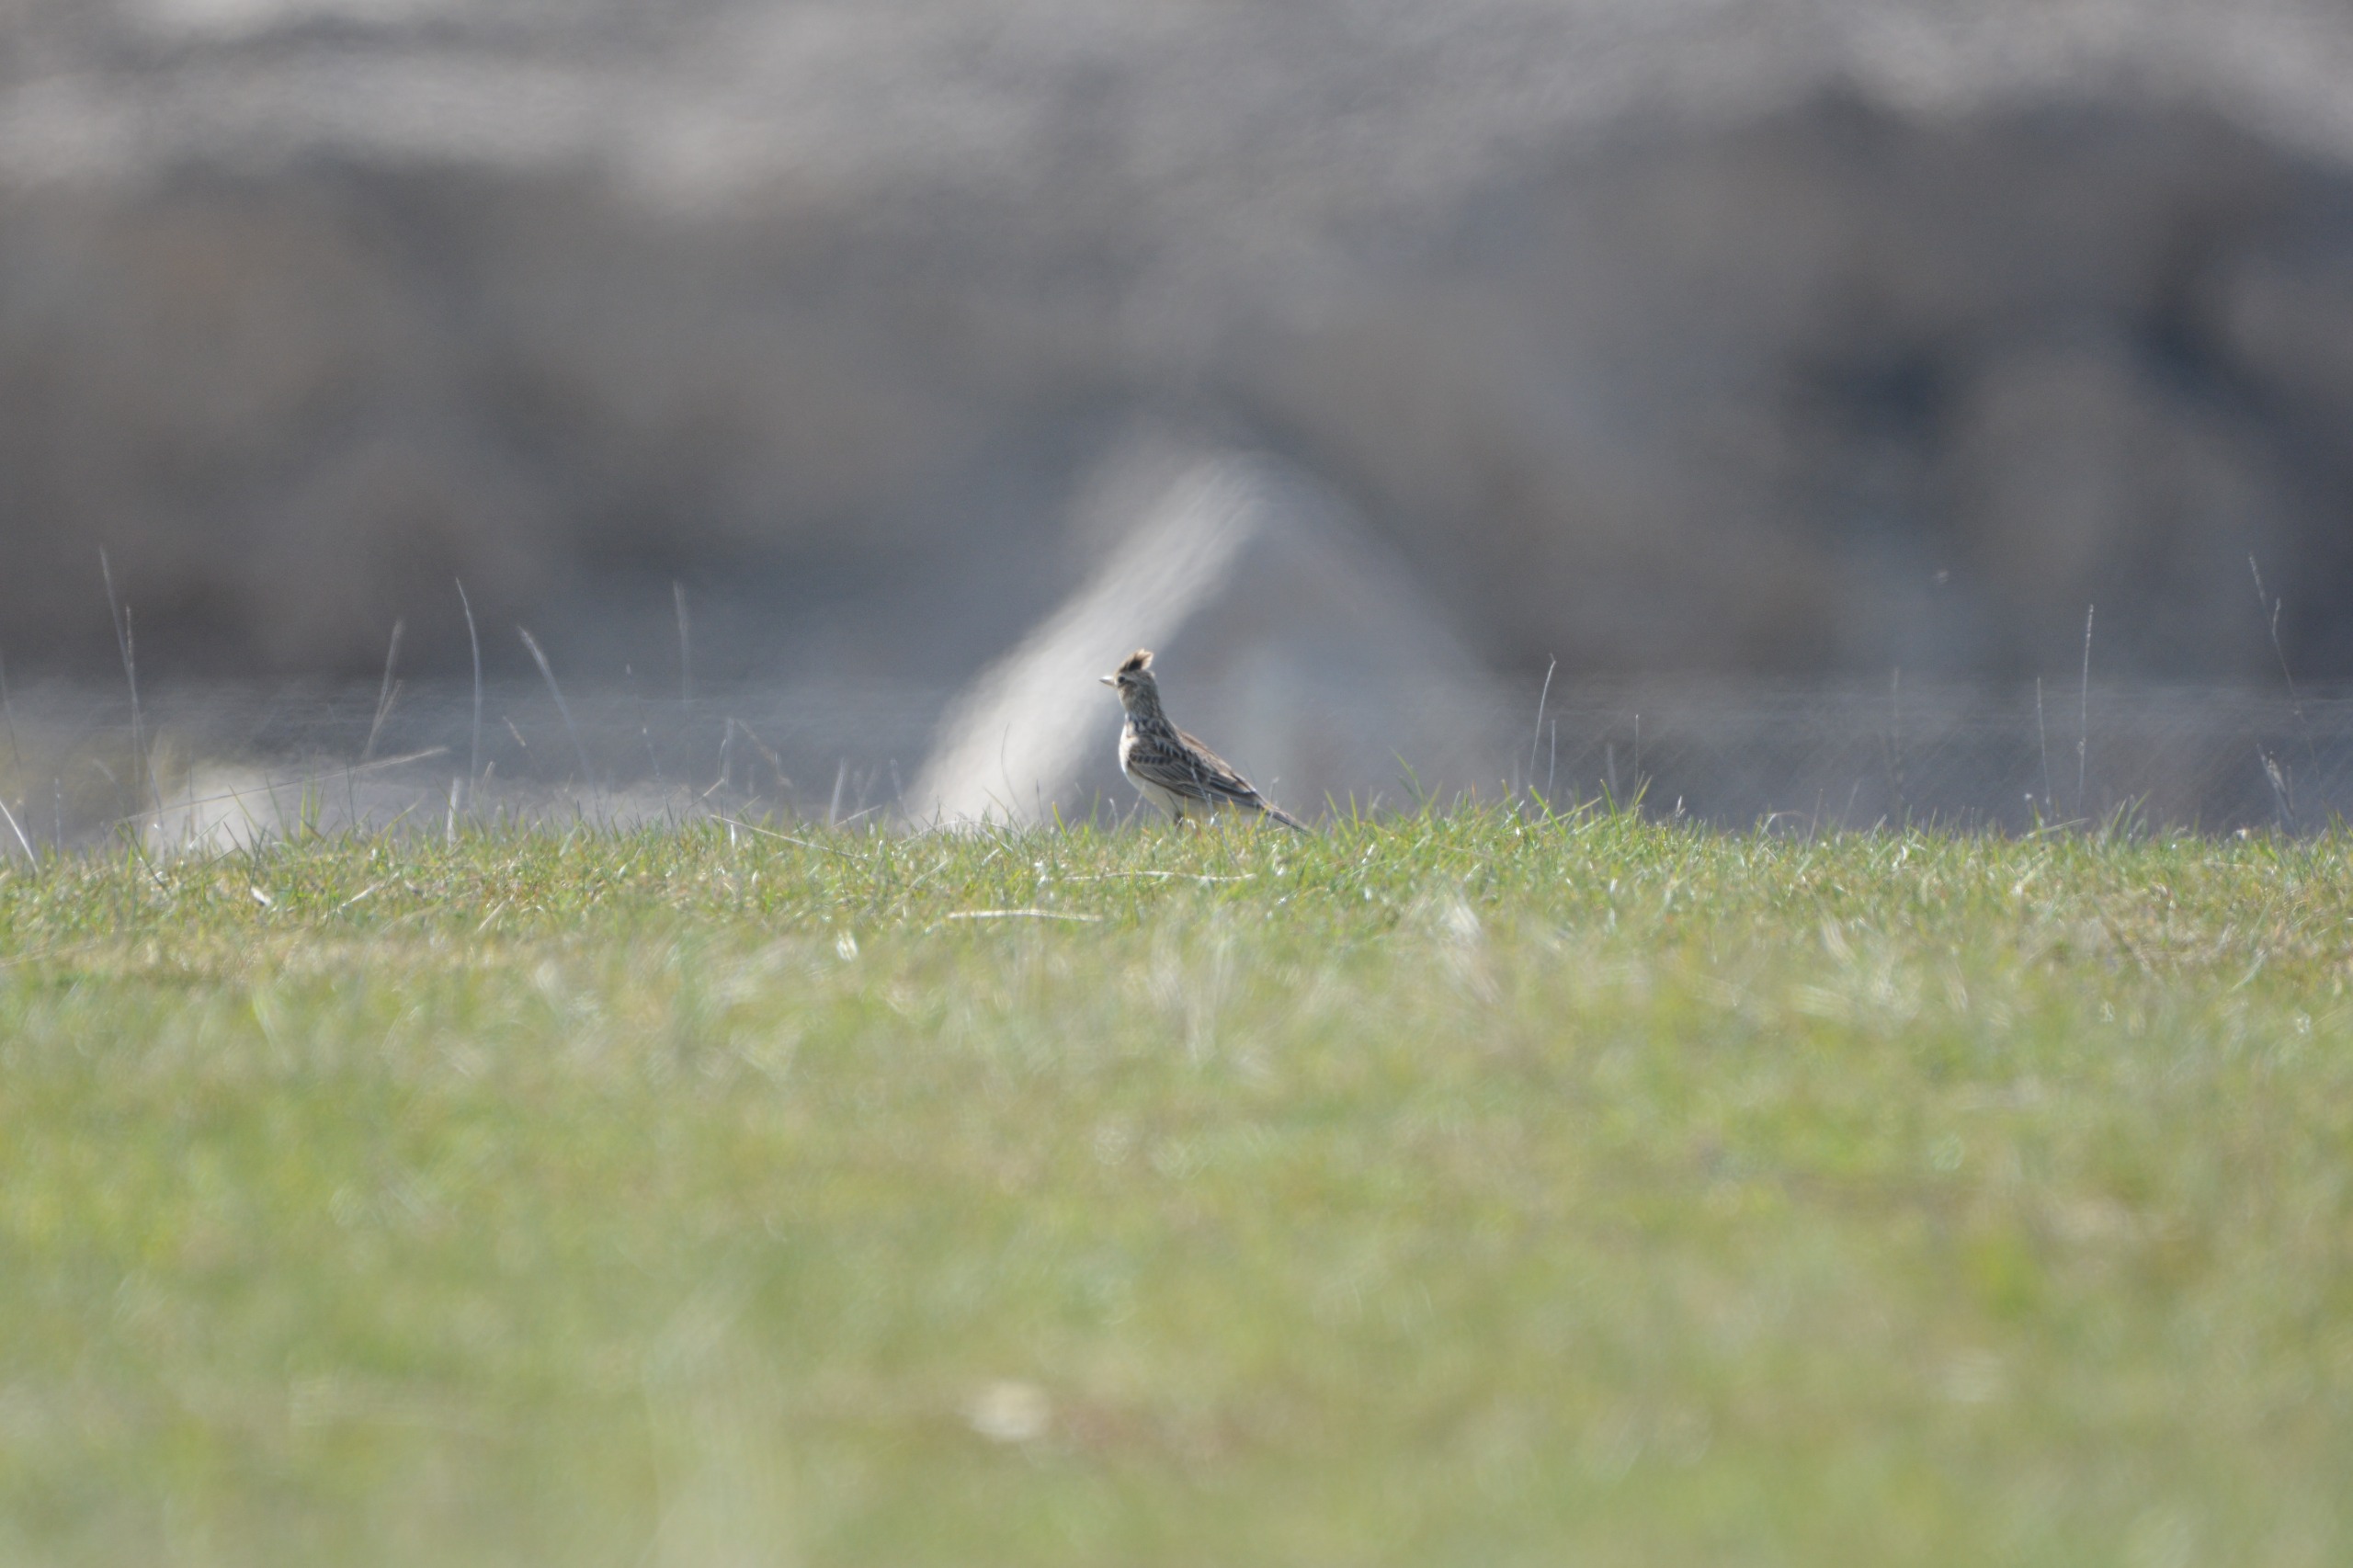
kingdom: Animalia
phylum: Chordata
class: Aves
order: Passeriformes
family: Alaudidae
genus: Alauda
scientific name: Alauda arvensis
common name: Sanglærke
